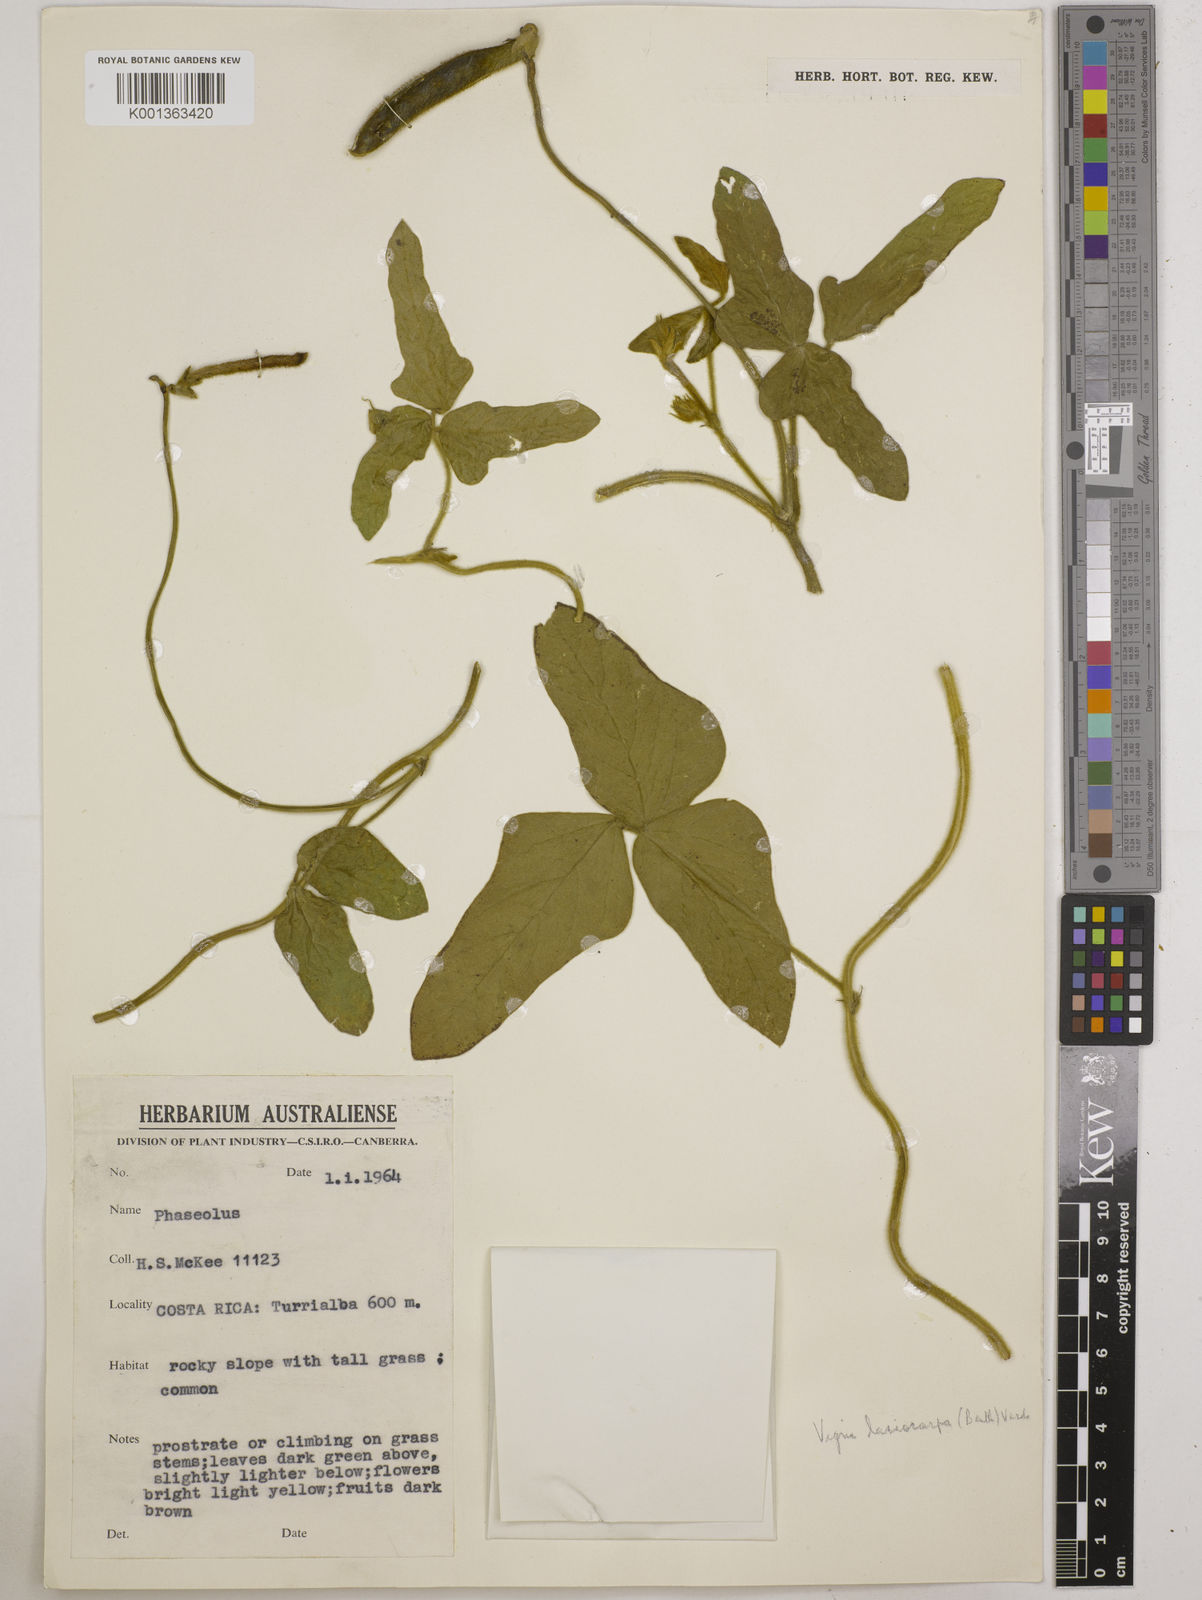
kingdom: Plantae
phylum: Tracheophyta
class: Magnoliopsida
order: Fabales
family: Fabaceae
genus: Vigna
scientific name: Vigna lasiocarpa
